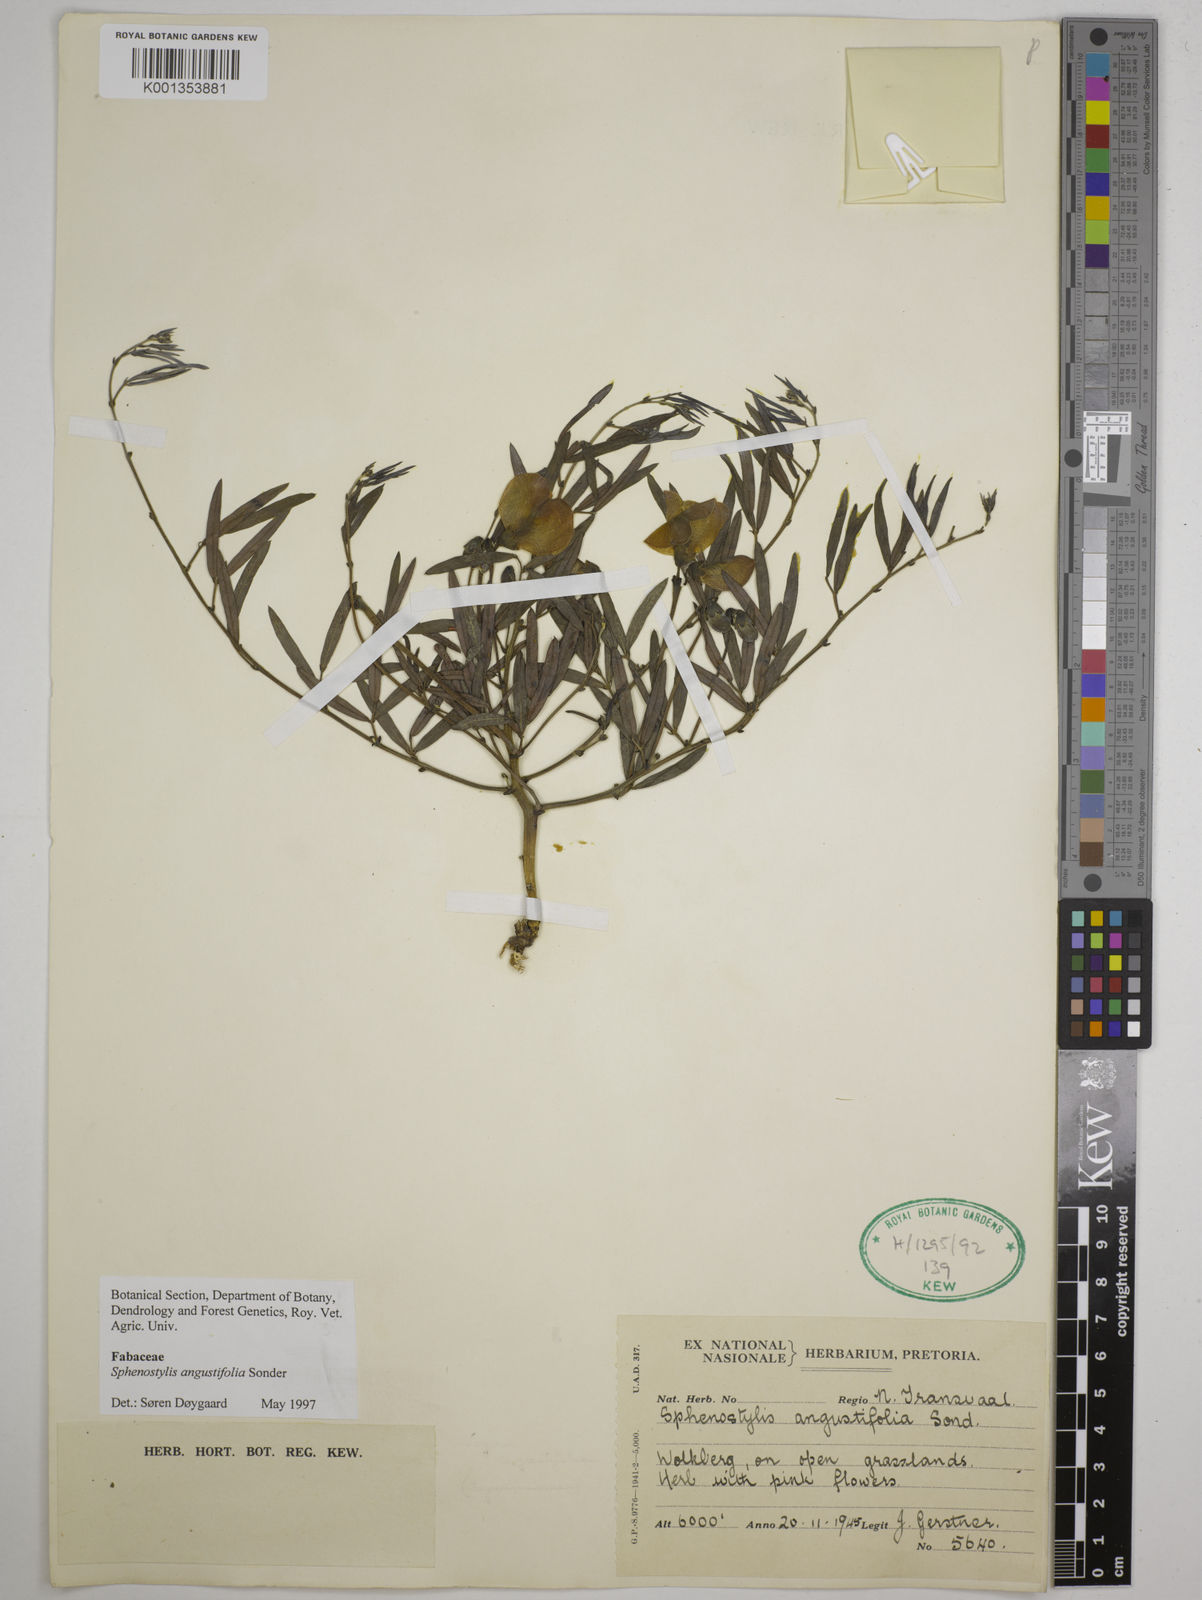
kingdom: Plantae
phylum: Tracheophyta
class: Magnoliopsida
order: Fabales
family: Fabaceae
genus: Sphenostylis
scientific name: Sphenostylis angustifolia
